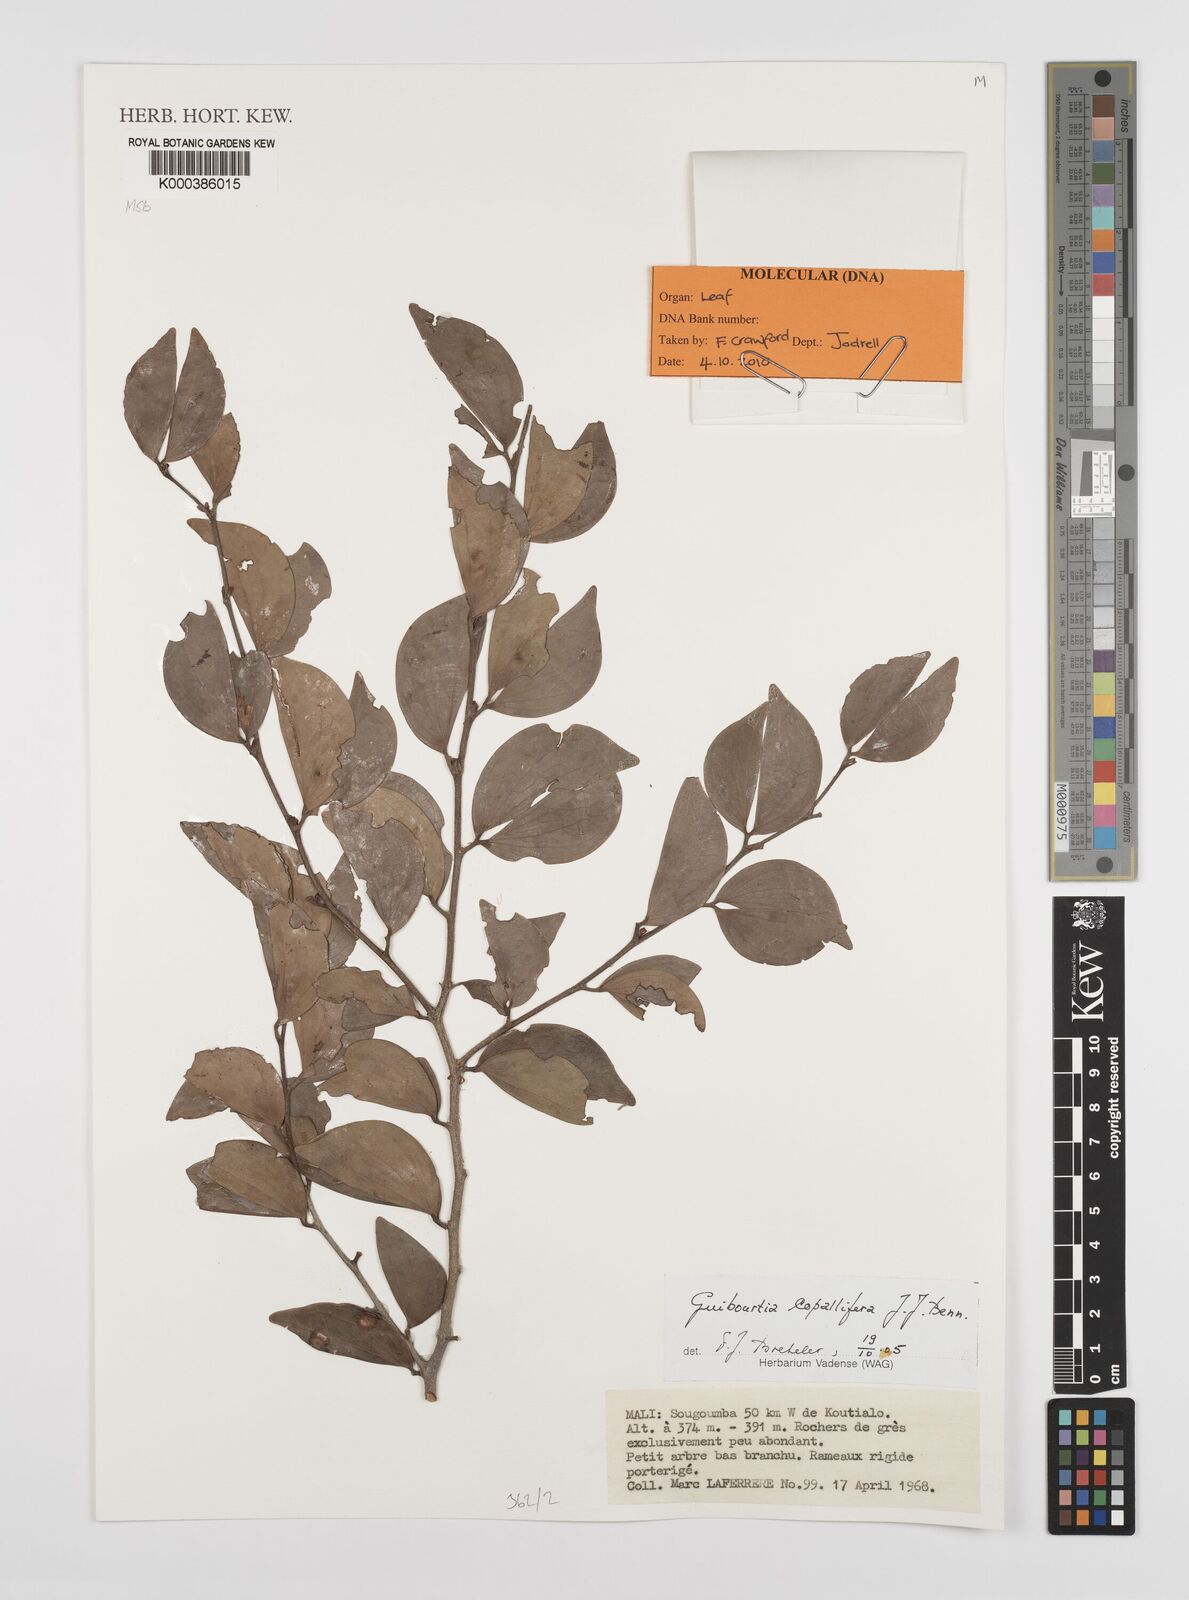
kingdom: Plantae
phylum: Tracheophyta
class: Magnoliopsida
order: Fabales
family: Fabaceae
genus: Guibourtia
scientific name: Guibourtia copallifera
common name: Kobo tree
